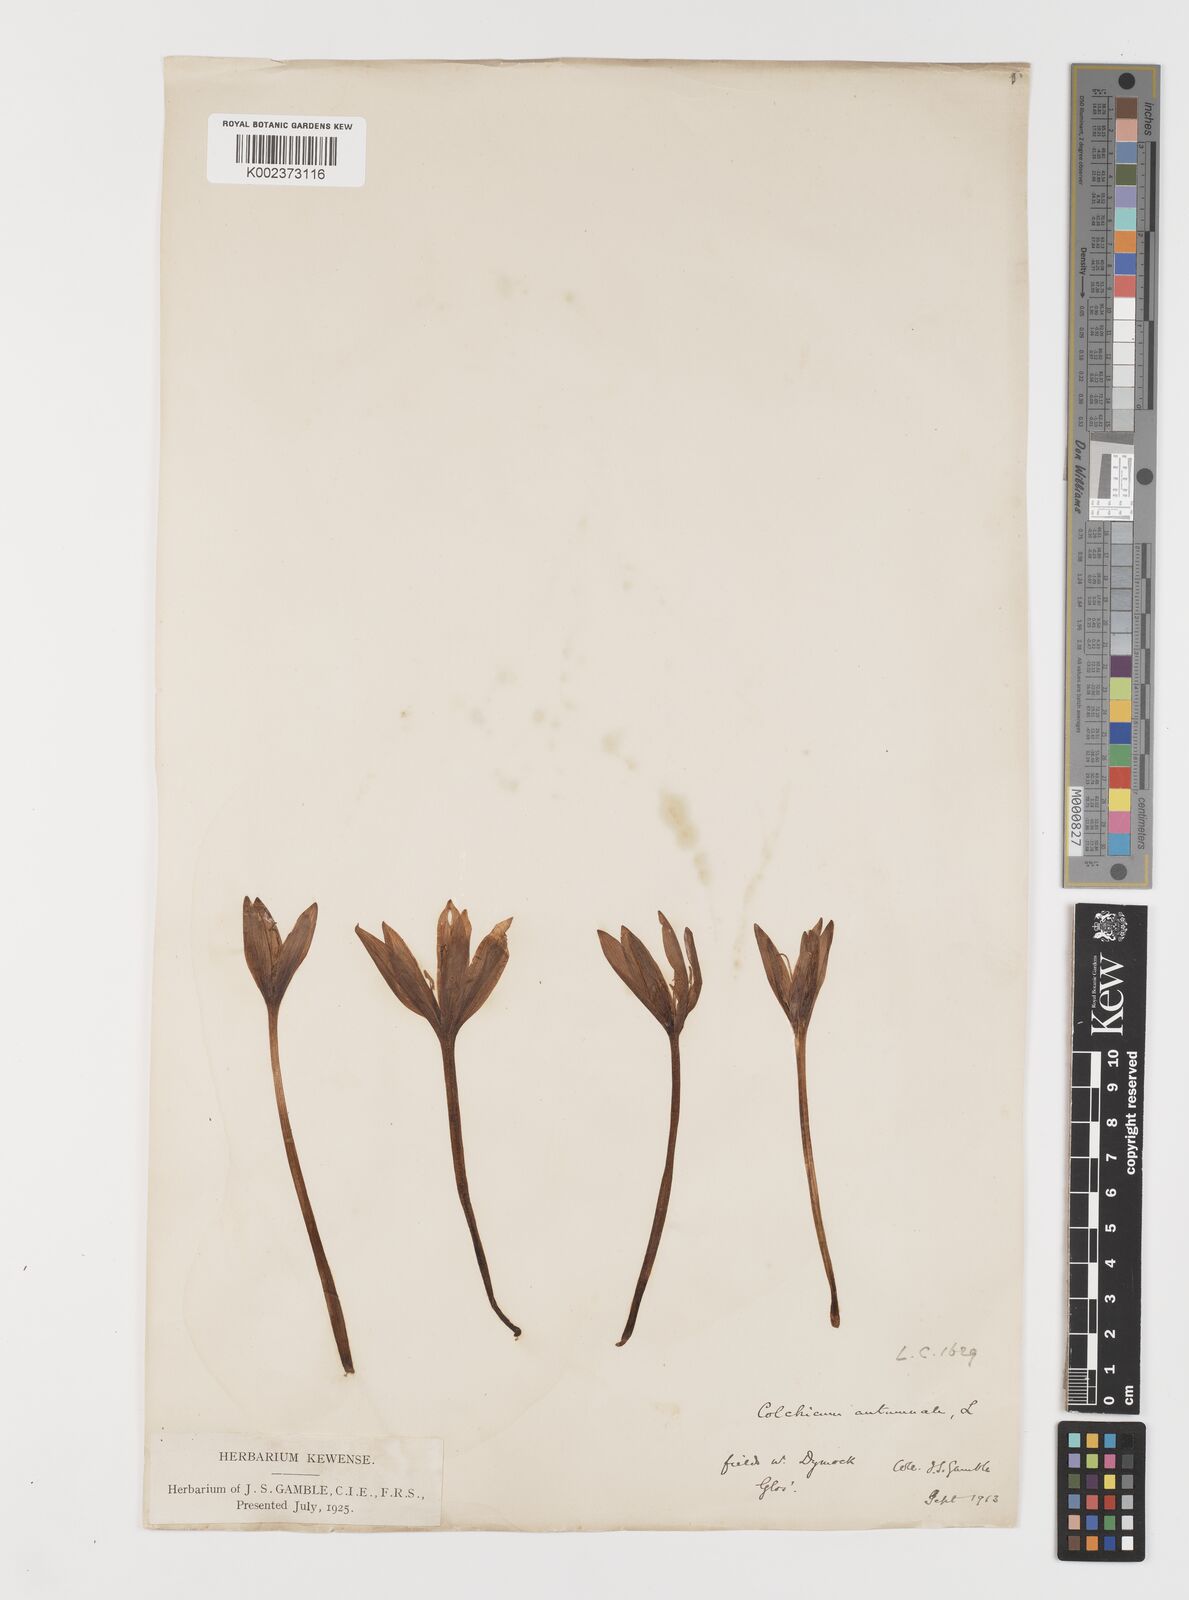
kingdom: Plantae
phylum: Tracheophyta
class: Liliopsida
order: Liliales
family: Colchicaceae
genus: Colchicum
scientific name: Colchicum autumnale
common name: Autumn crocus
